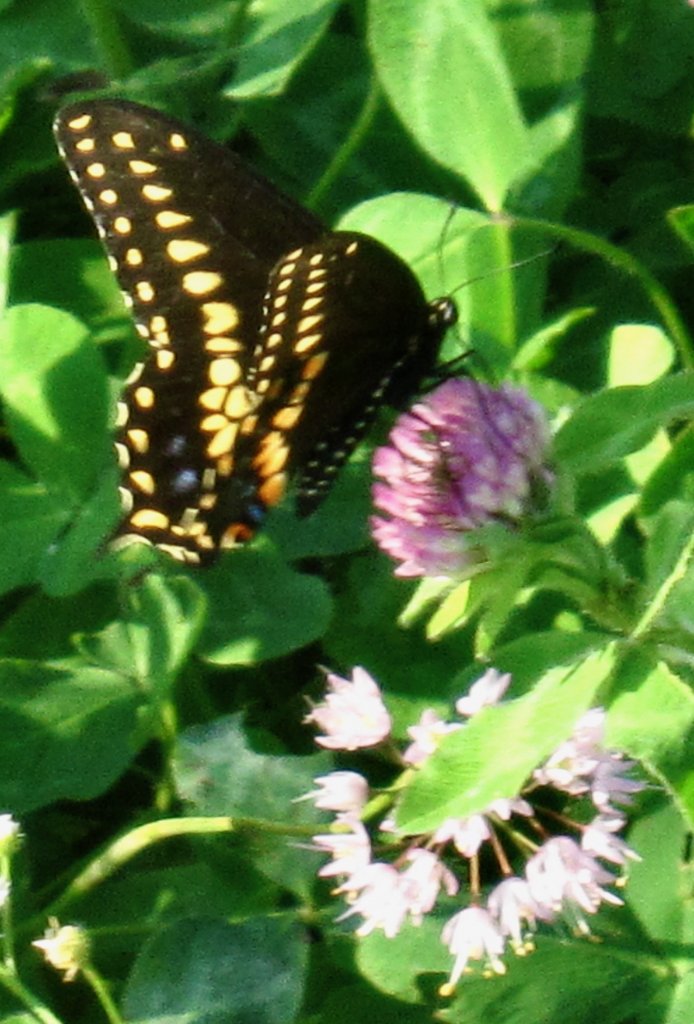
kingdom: Animalia
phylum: Arthropoda
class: Insecta
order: Lepidoptera
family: Papilionidae
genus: Papilio
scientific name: Papilio polyxenes
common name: Black Swallowtail
